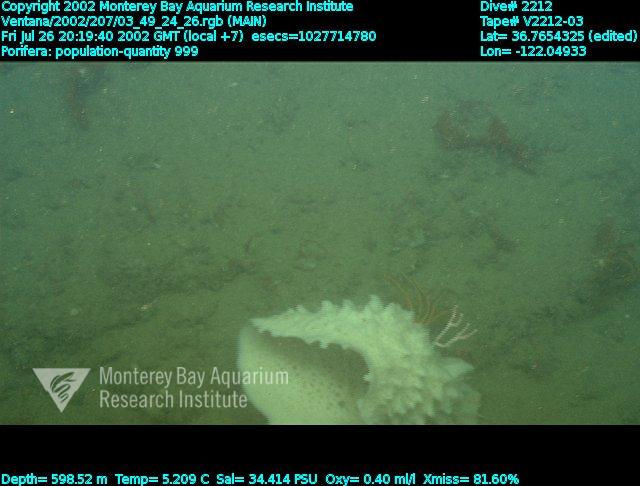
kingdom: Animalia
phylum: Porifera
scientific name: Porifera
